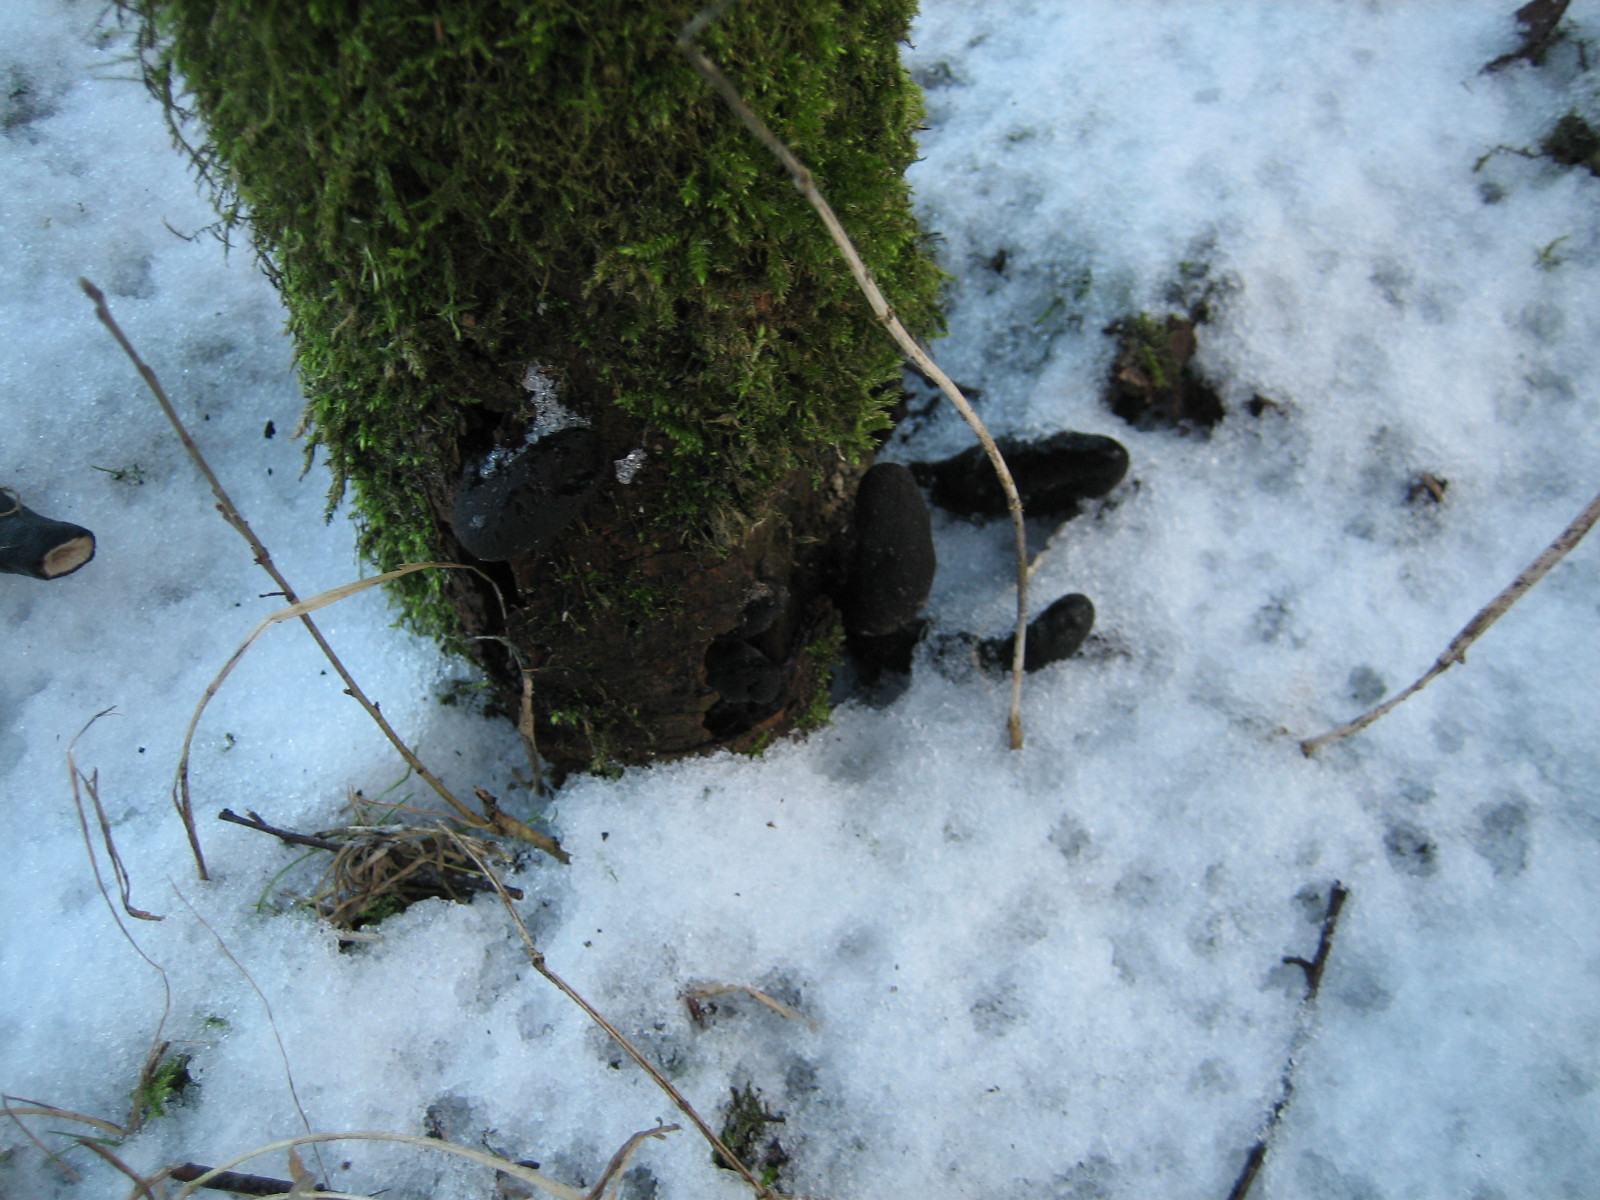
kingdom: Fungi
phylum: Ascomycota
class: Sordariomycetes
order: Xylariales
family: Xylariaceae
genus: Xylaria
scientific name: Xylaria polymorpha
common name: kølle-stødsvamp
